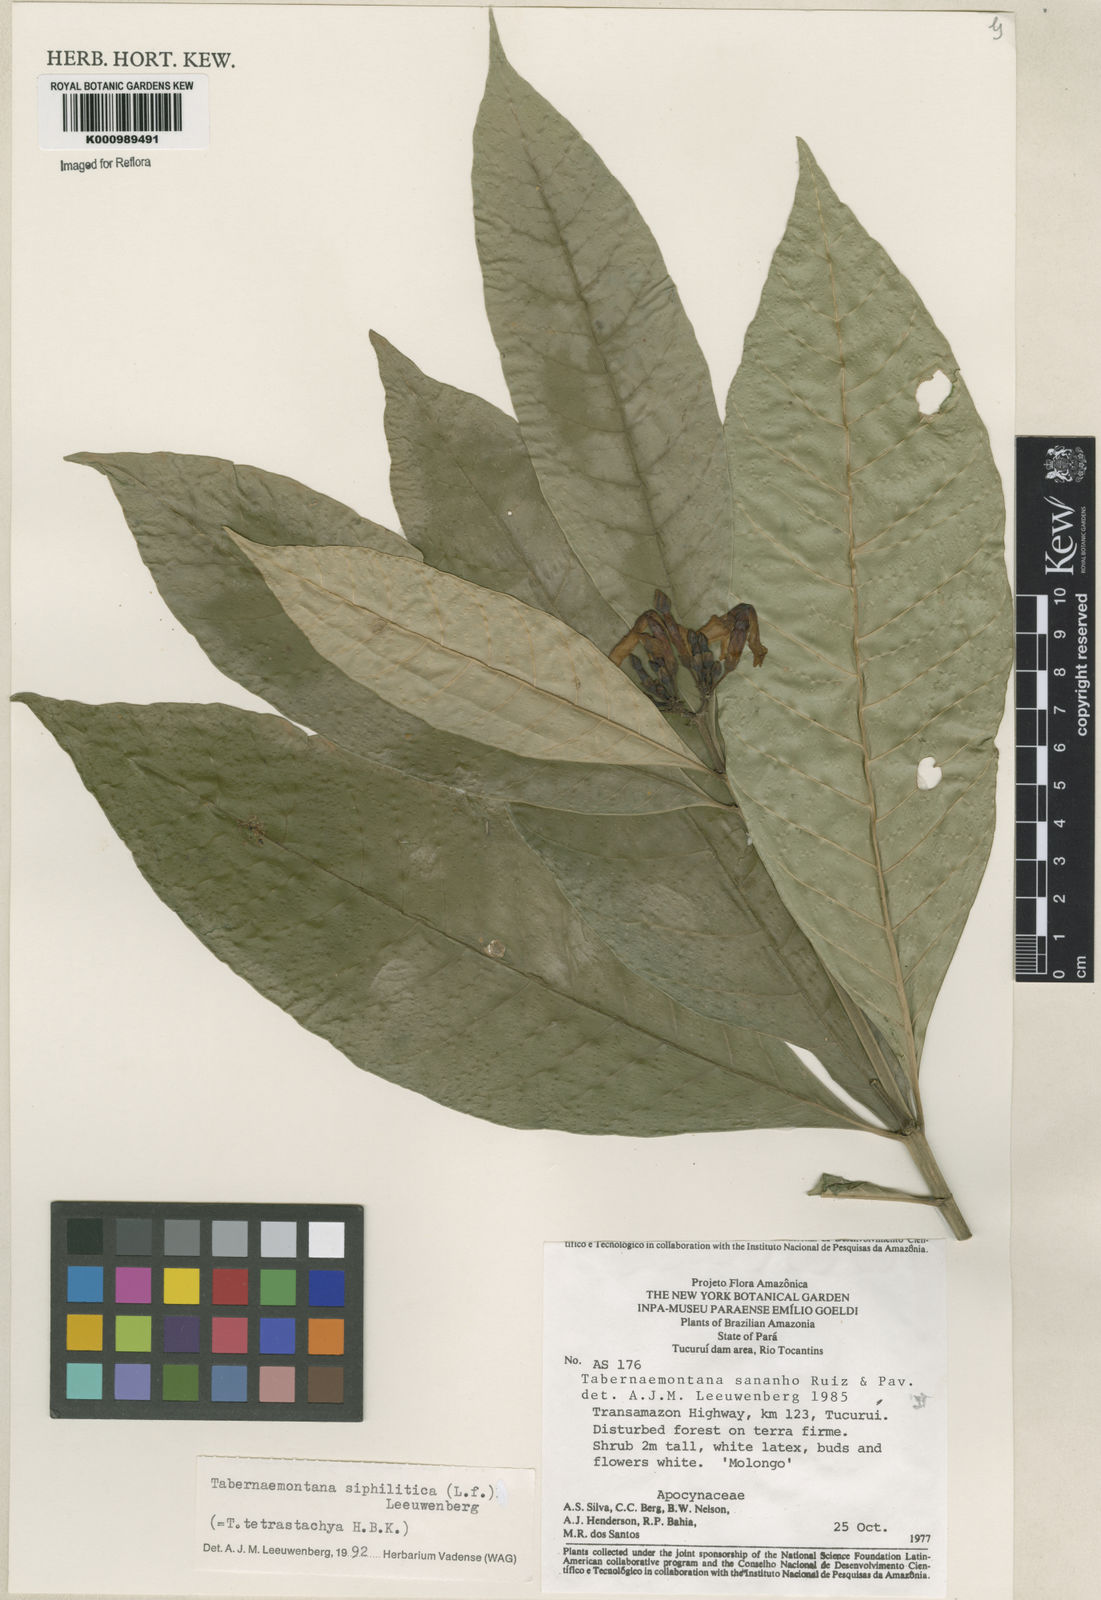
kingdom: Plantae
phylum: Tracheophyta
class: Magnoliopsida
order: Gentianales
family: Apocynaceae
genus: Tabernaemontana
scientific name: Tabernaemontana siphilitica
